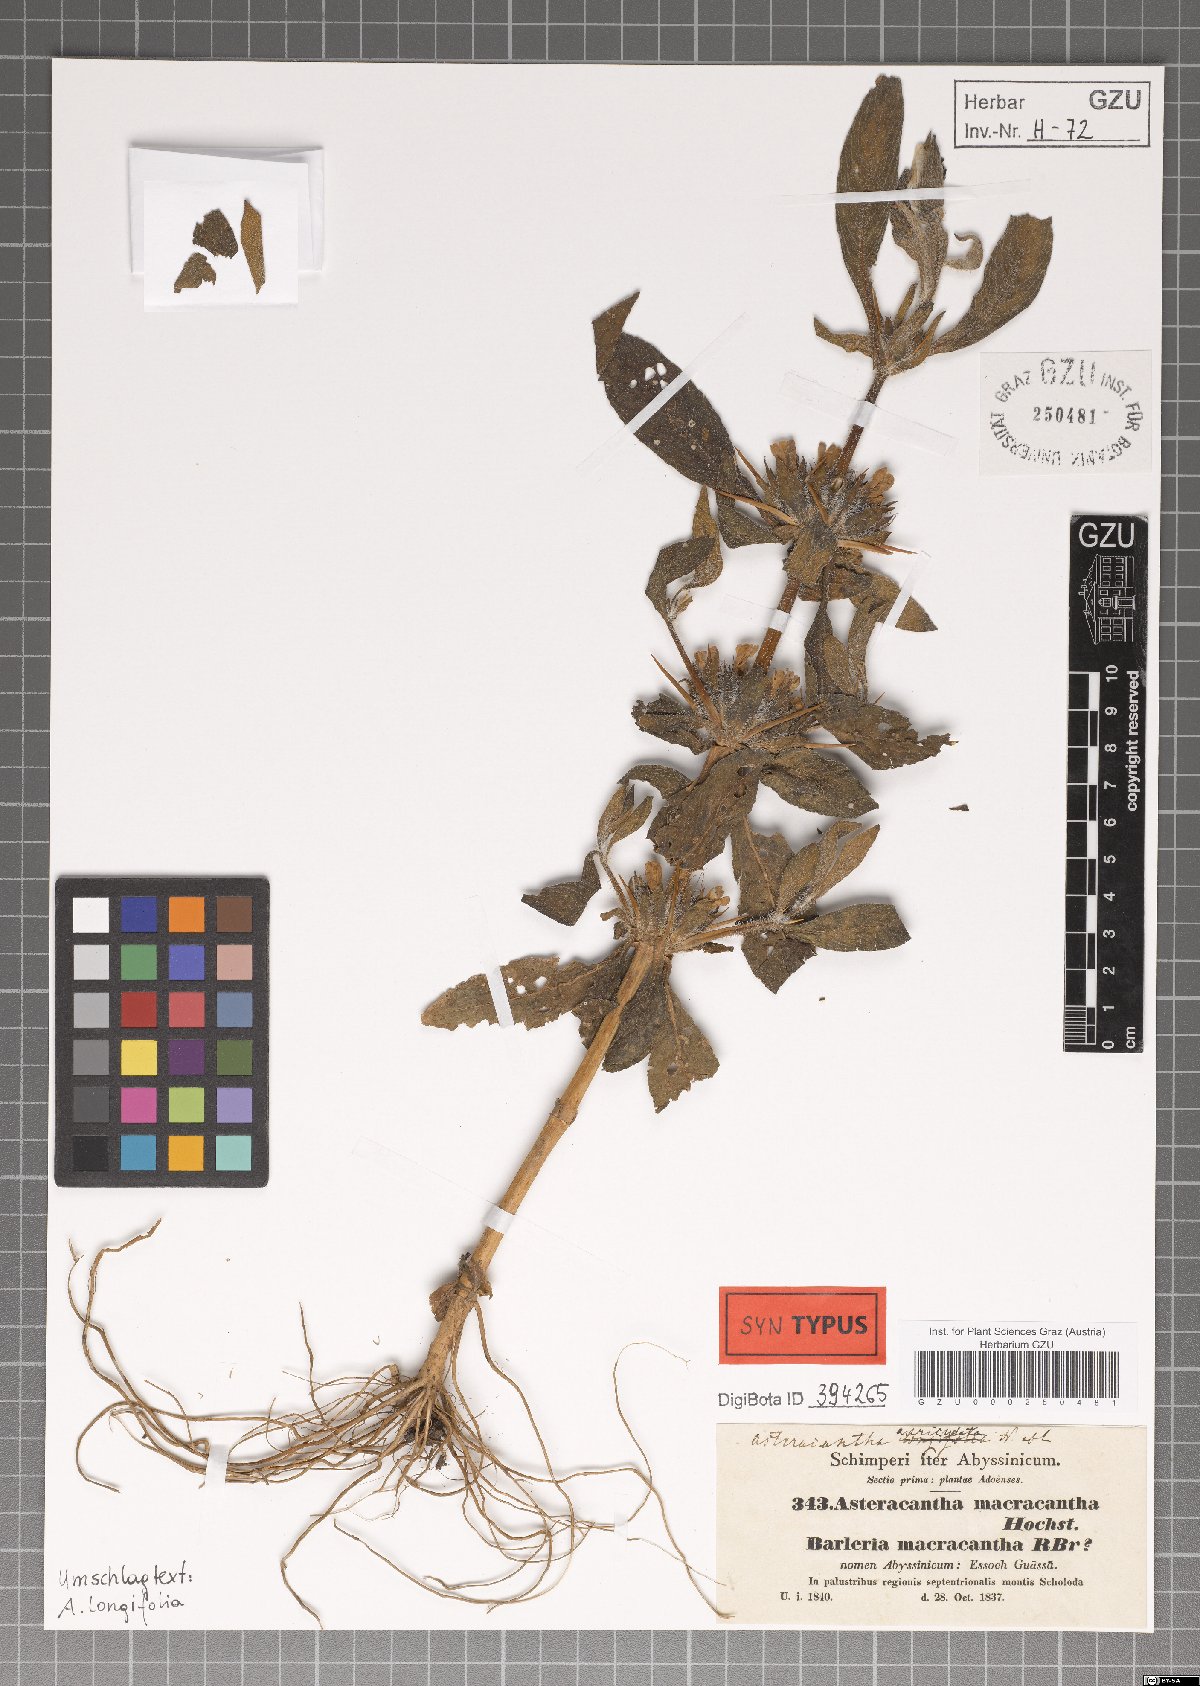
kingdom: Plantae
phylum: Tracheophyta
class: Magnoliopsida
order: Lamiales
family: Acanthaceae
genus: Hygrophila
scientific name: Hygrophila auriculata
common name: Hygrophila
